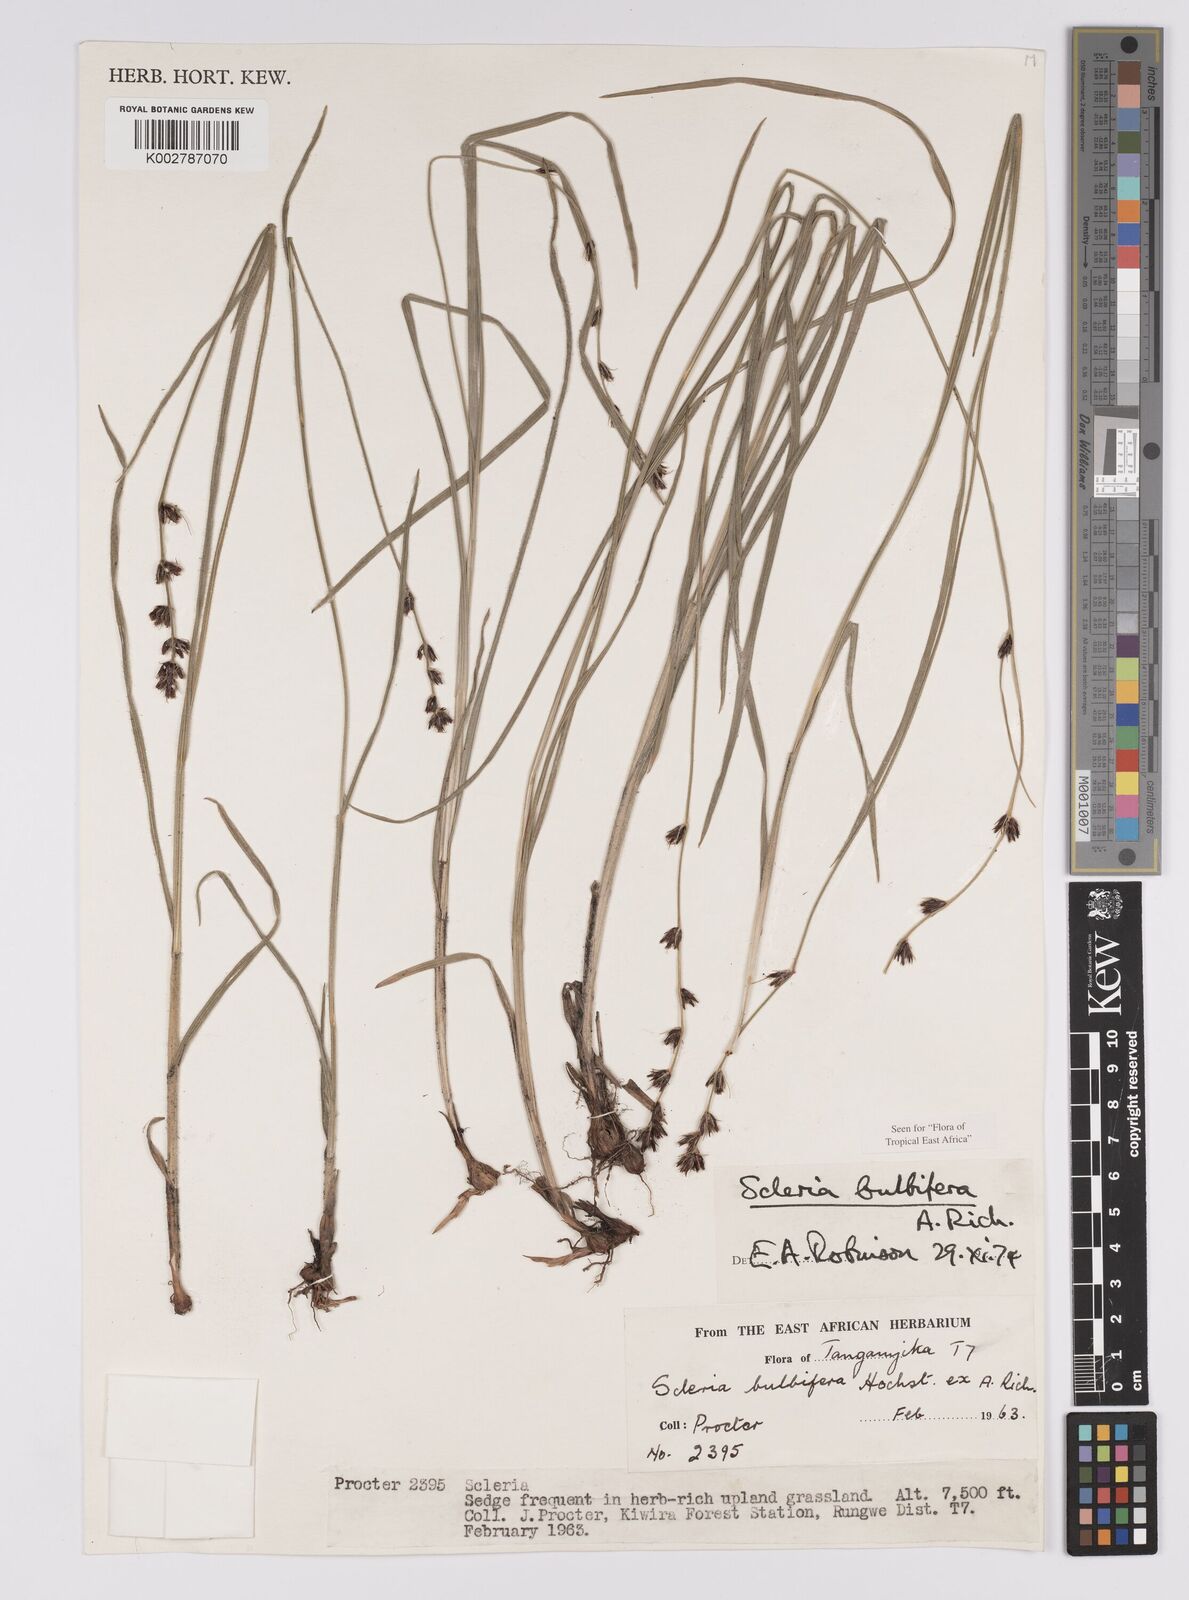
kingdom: Plantae
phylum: Tracheophyta
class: Liliopsida
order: Poales
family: Cyperaceae
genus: Scleria
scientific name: Scleria bulbifera
